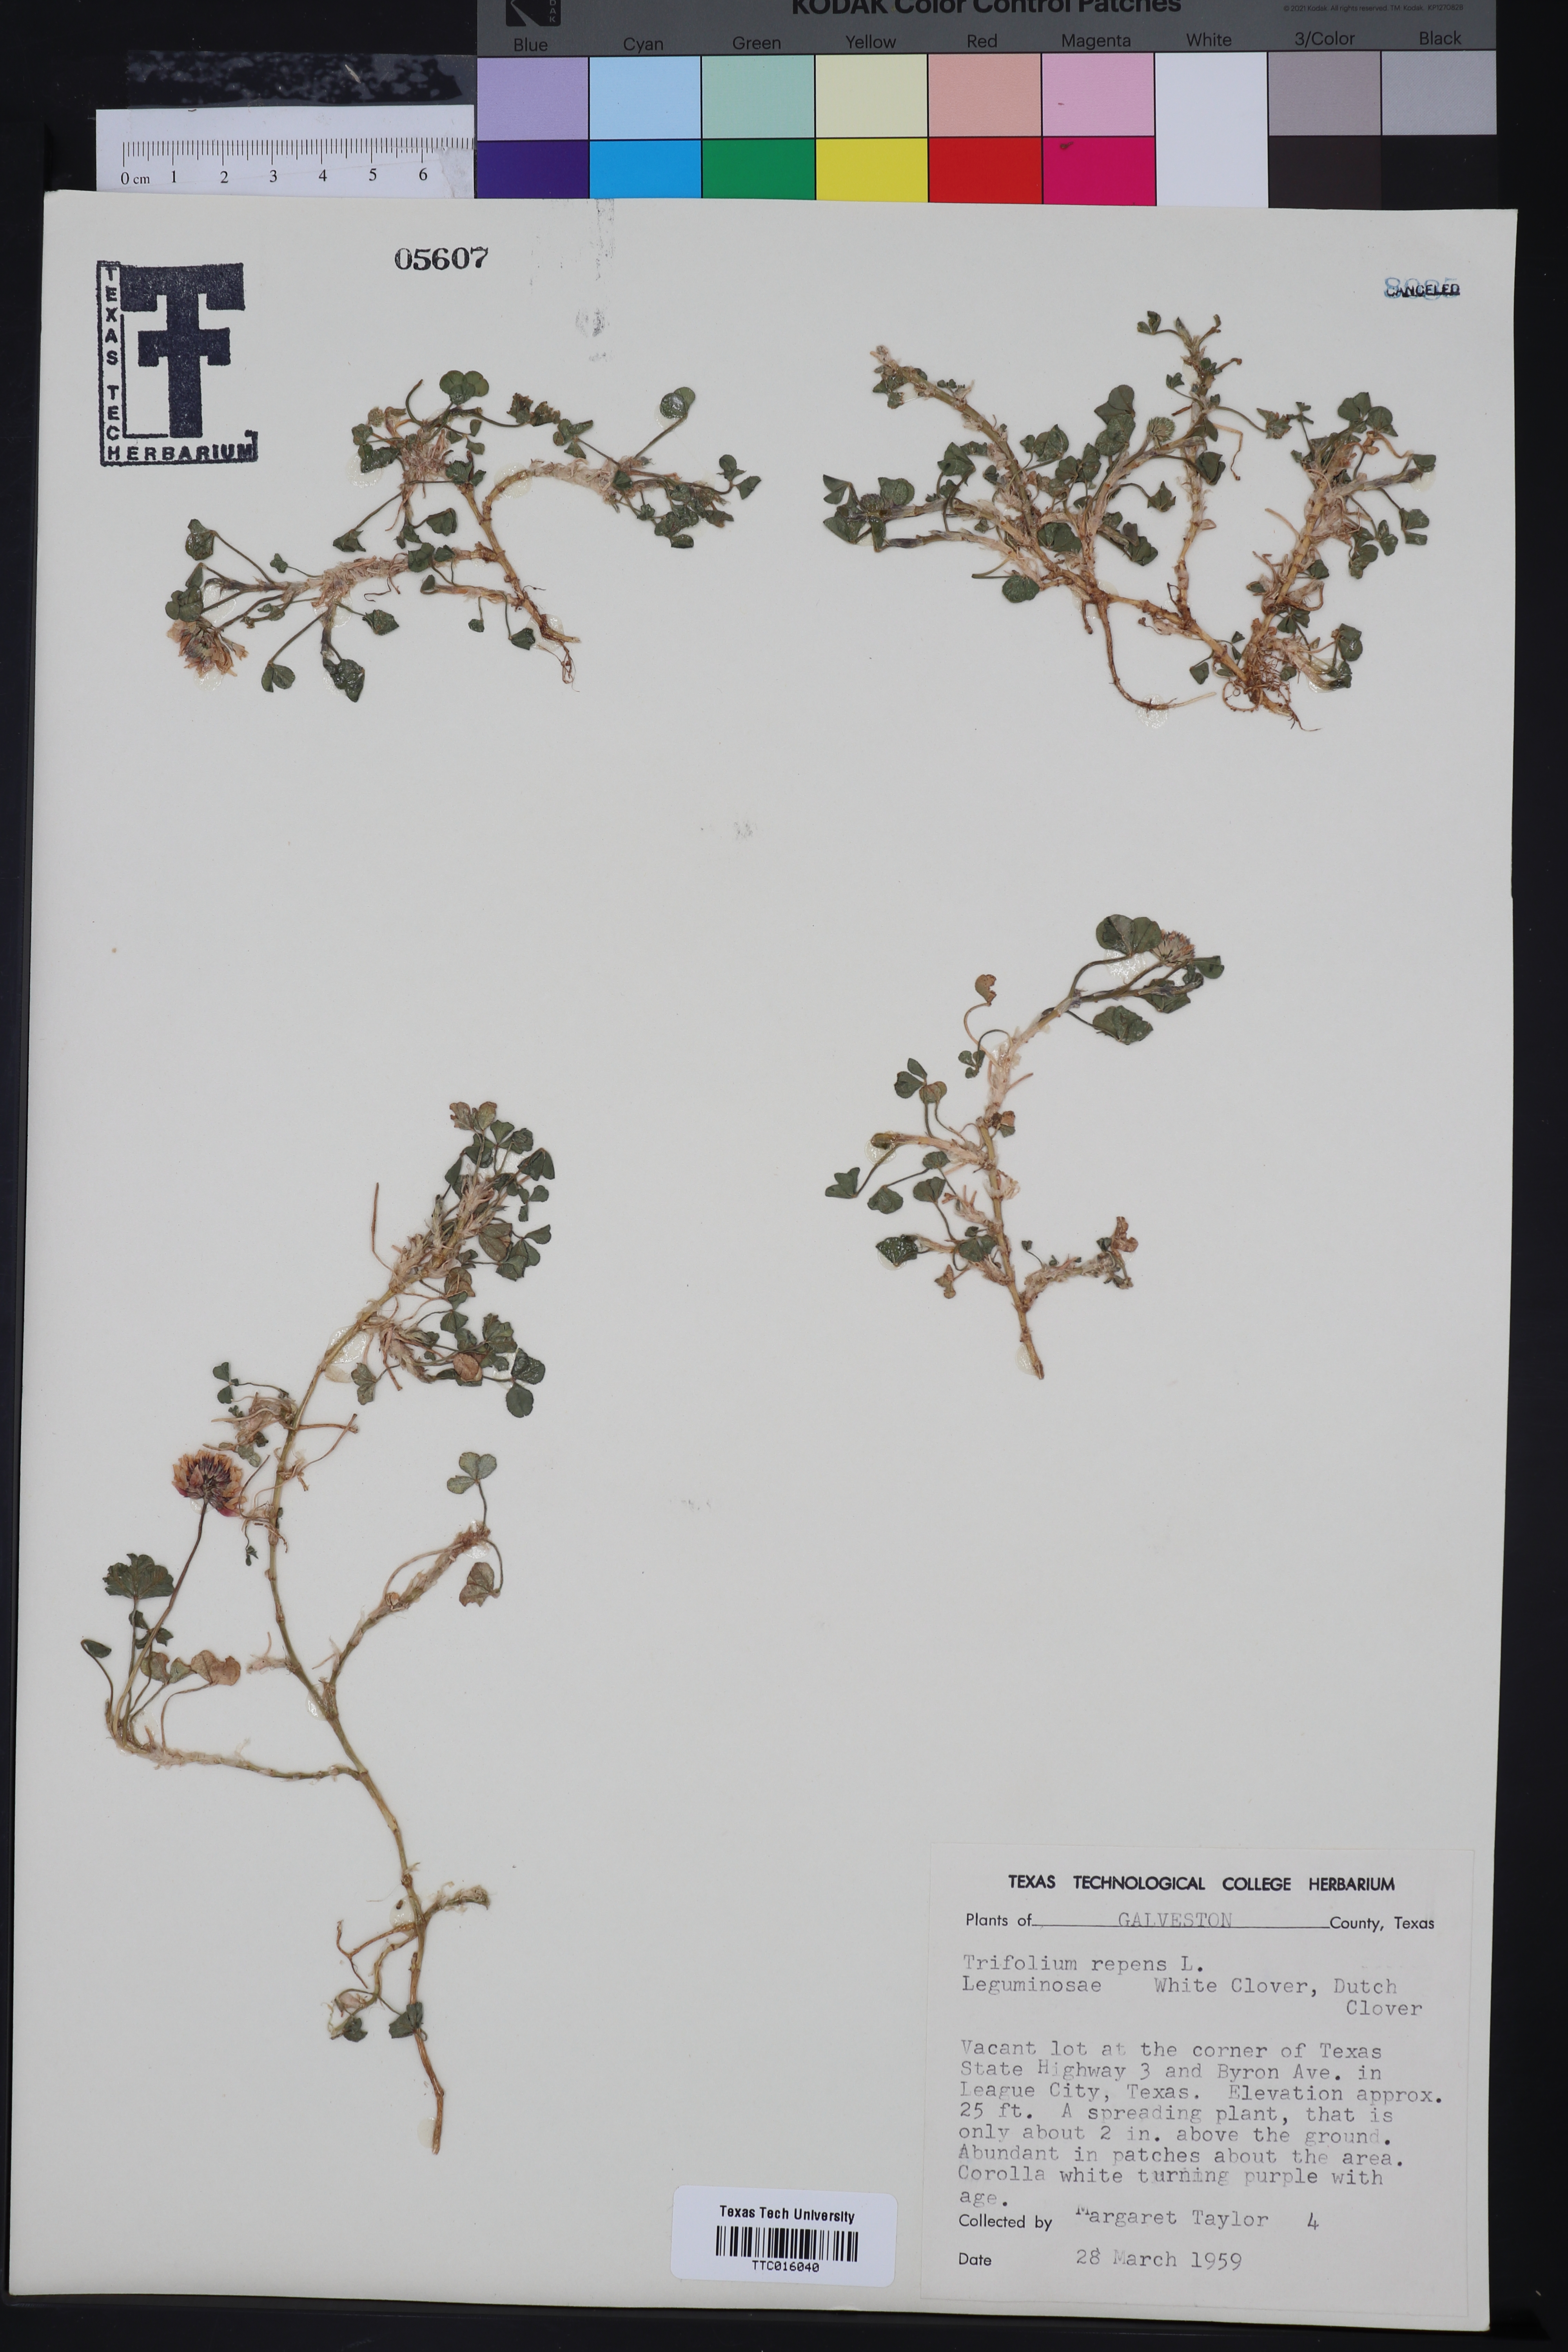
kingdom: Plantae
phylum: Tracheophyta
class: Magnoliopsida
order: Fabales
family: Fabaceae
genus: Trifolium
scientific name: Trifolium repens
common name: White clover
